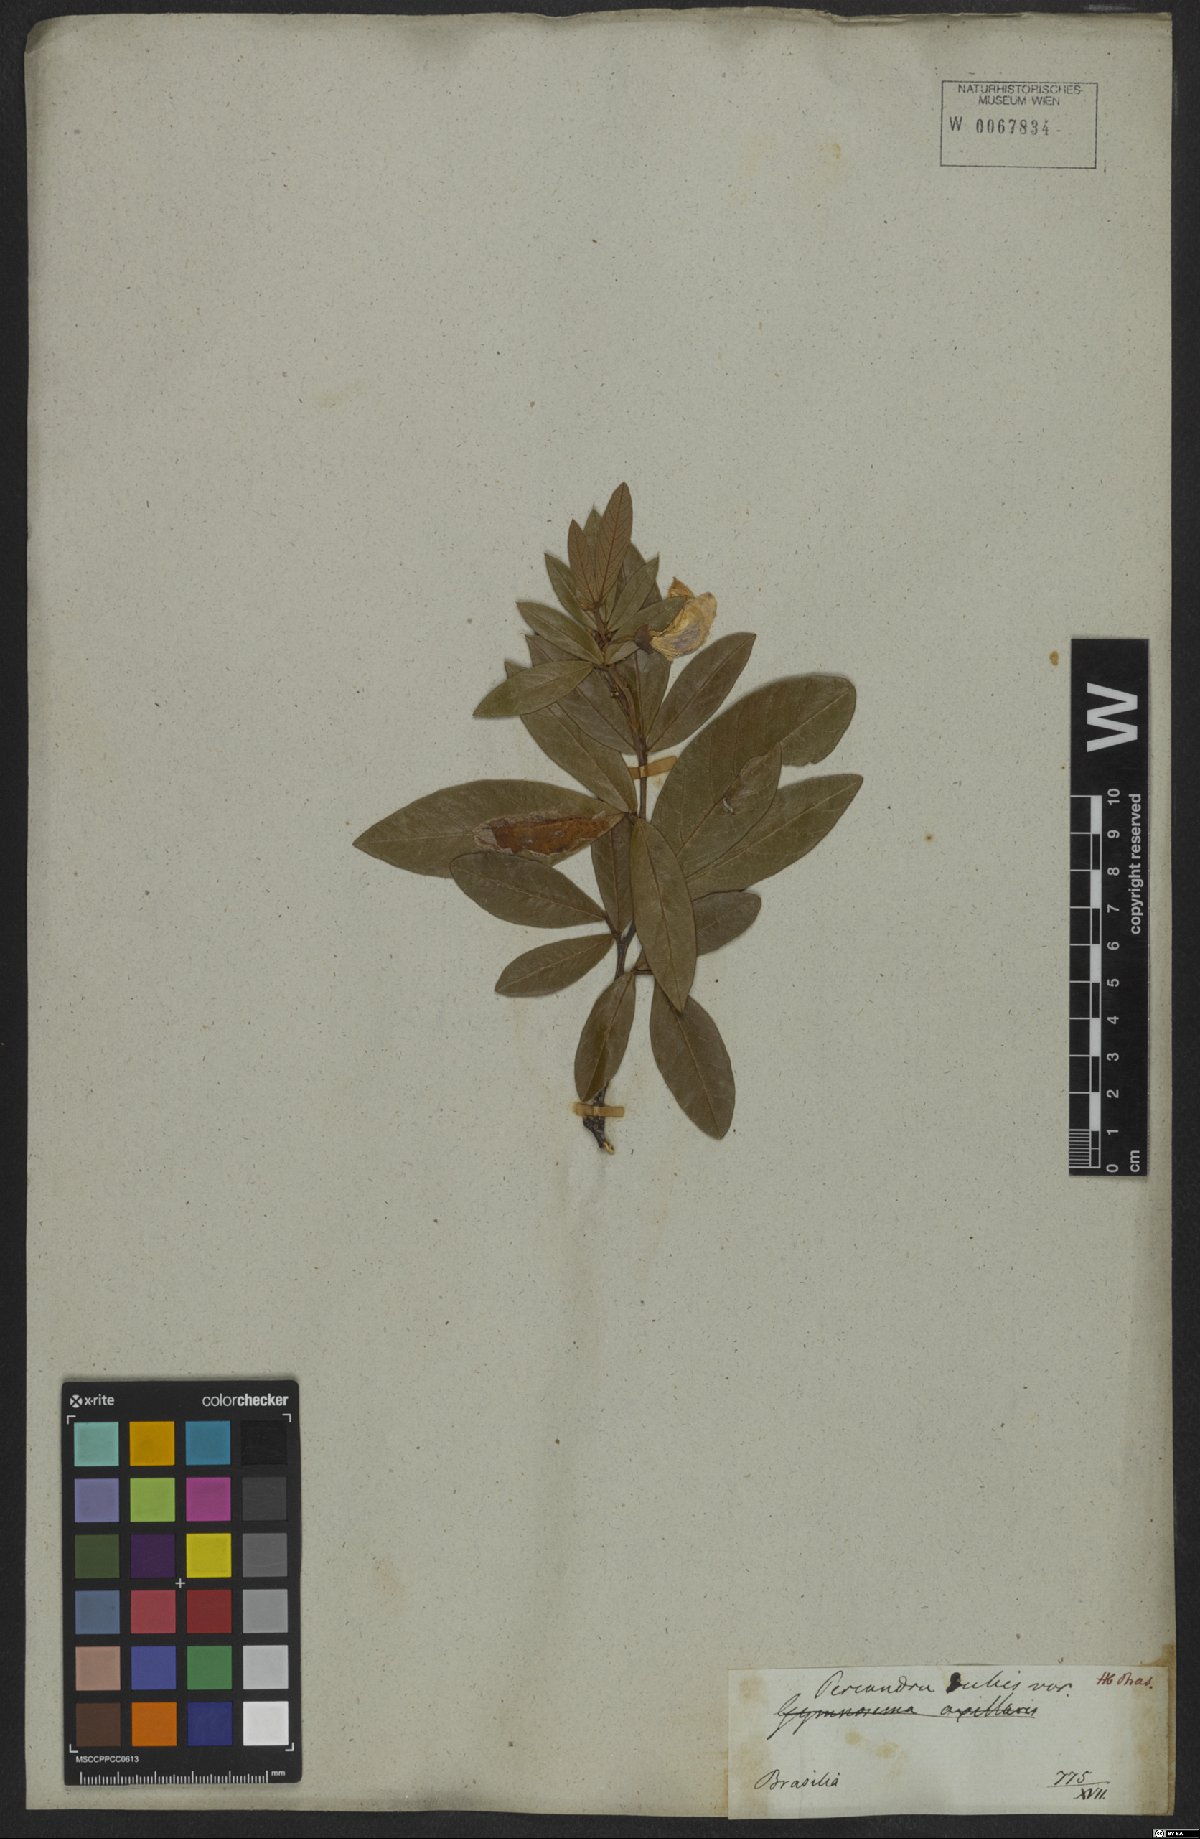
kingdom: Plantae
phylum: Tracheophyta
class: Magnoliopsida
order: Fabales
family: Fabaceae
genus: Periandra
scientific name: Periandra mediterranea
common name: Brazilian licorice
